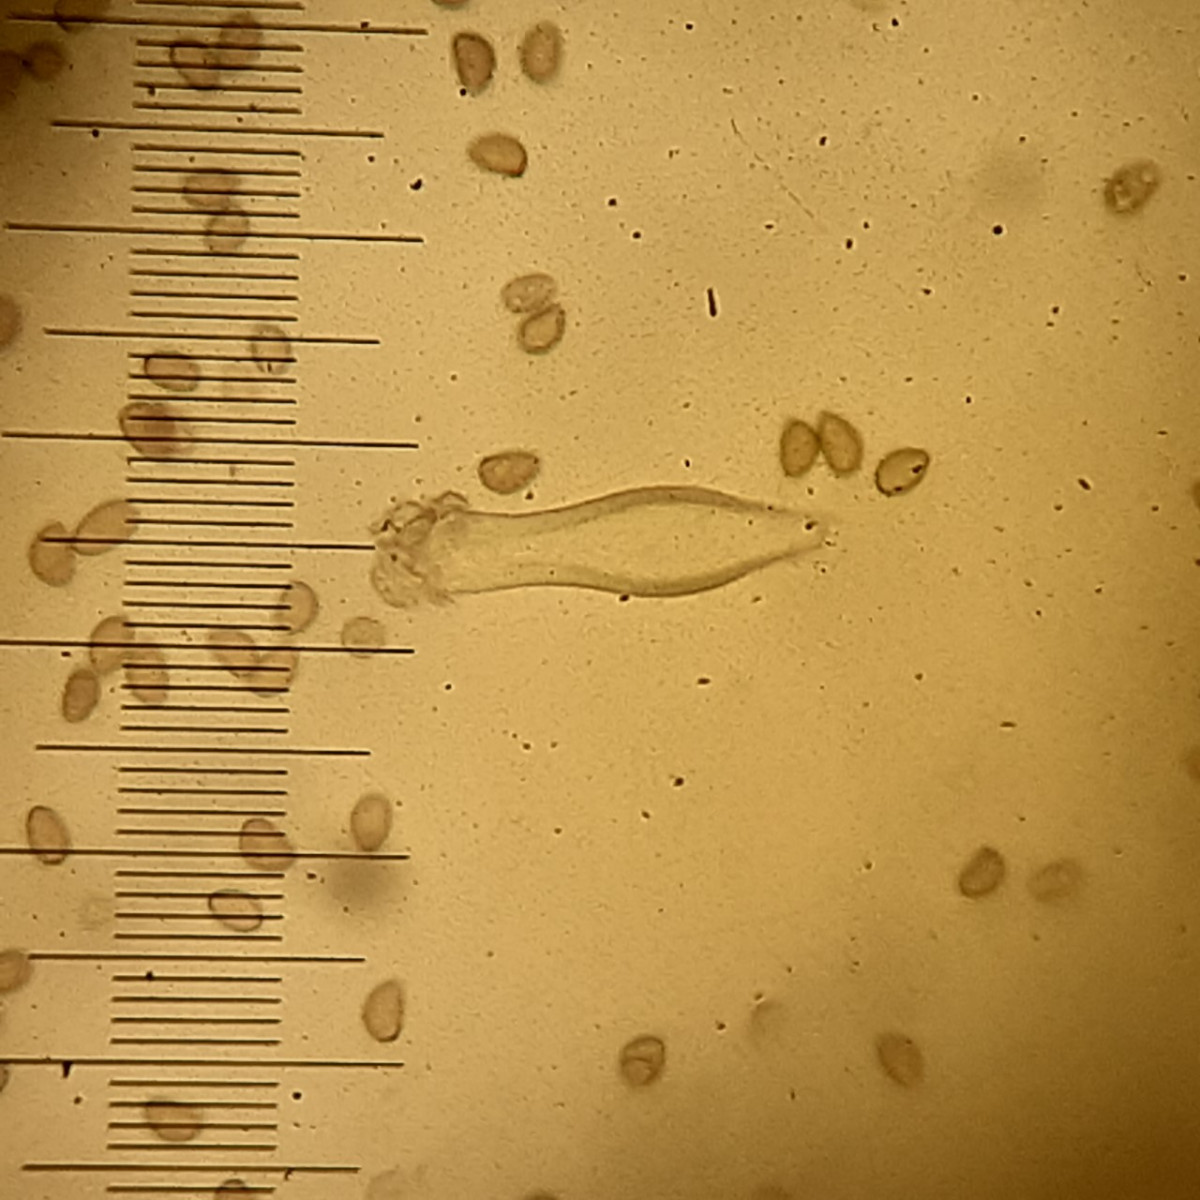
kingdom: Fungi
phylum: Basidiomycota
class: Agaricomycetes
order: Agaricales
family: Inocybaceae
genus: Inocybe
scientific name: Inocybe glabripes
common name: småsporet trævlhat
